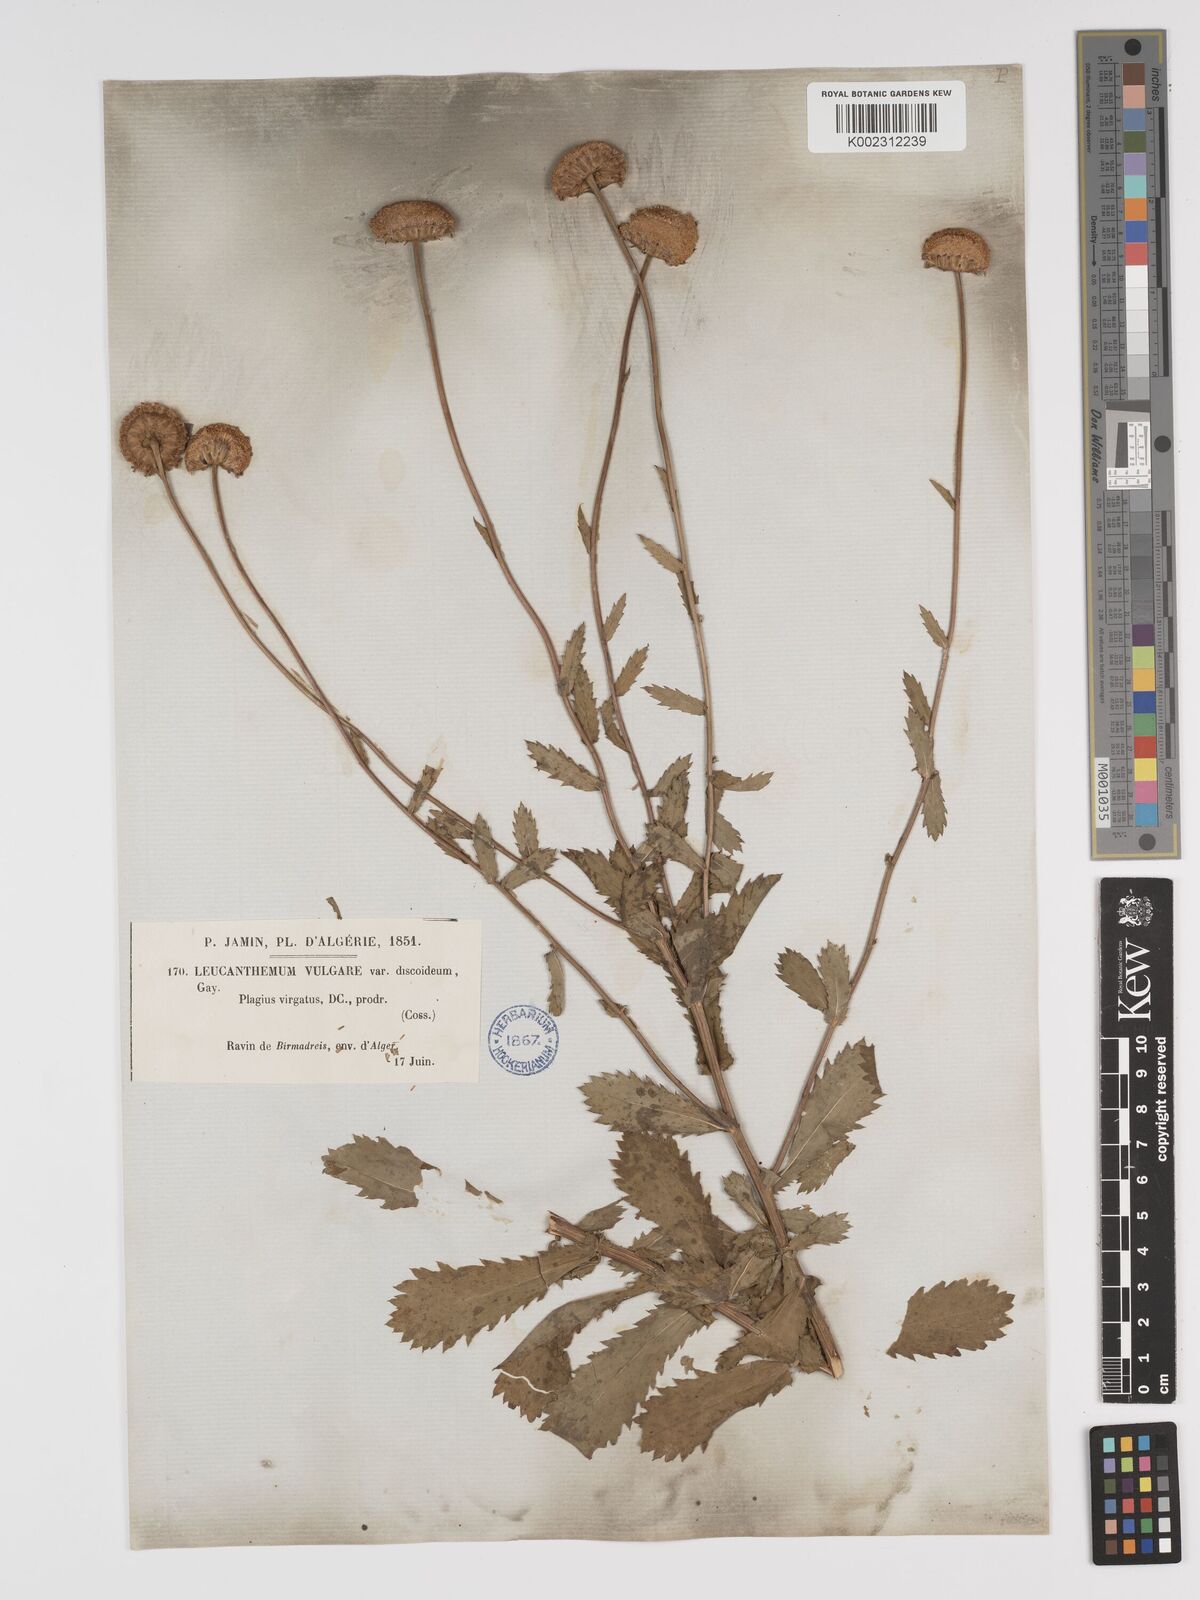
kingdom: Plantae
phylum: Tracheophyta
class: Magnoliopsida
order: Asterales
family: Asteraceae
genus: Tanacetum
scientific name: Tanacetum vulgare
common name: Common tansy
